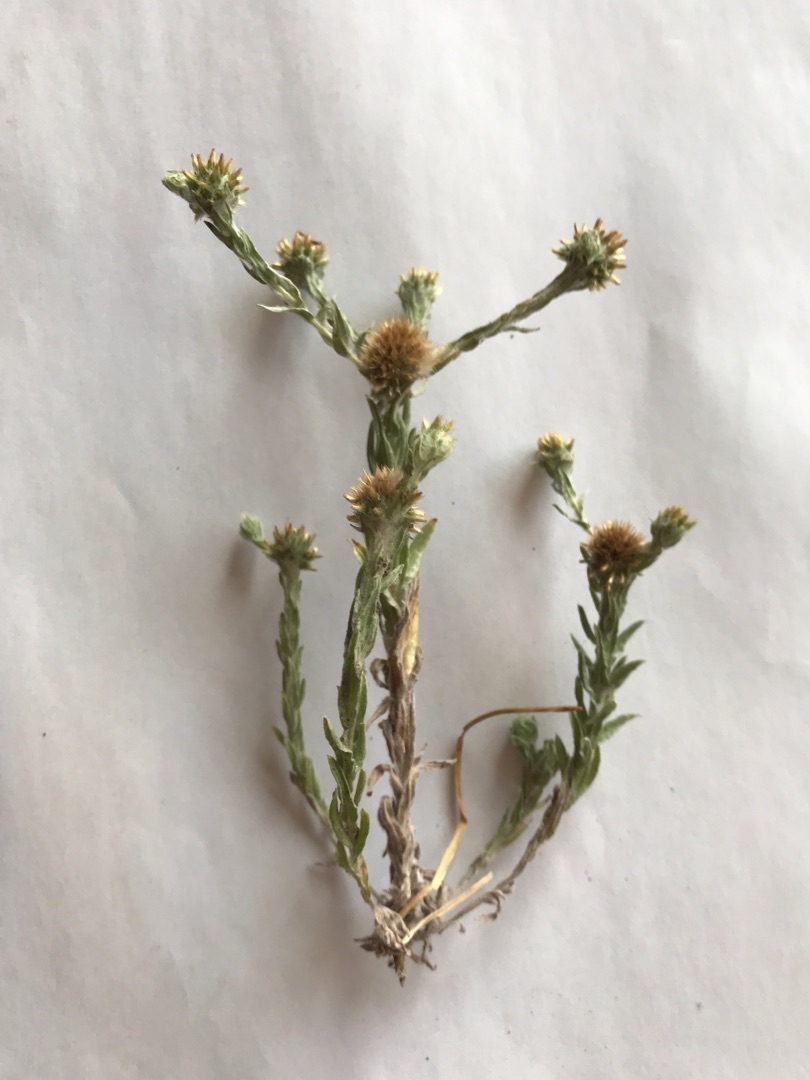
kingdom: Plantae
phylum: Tracheophyta
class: Magnoliopsida
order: Asterales
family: Asteraceae
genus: Filago
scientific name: Filago germanica
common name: Kugle-museurt
